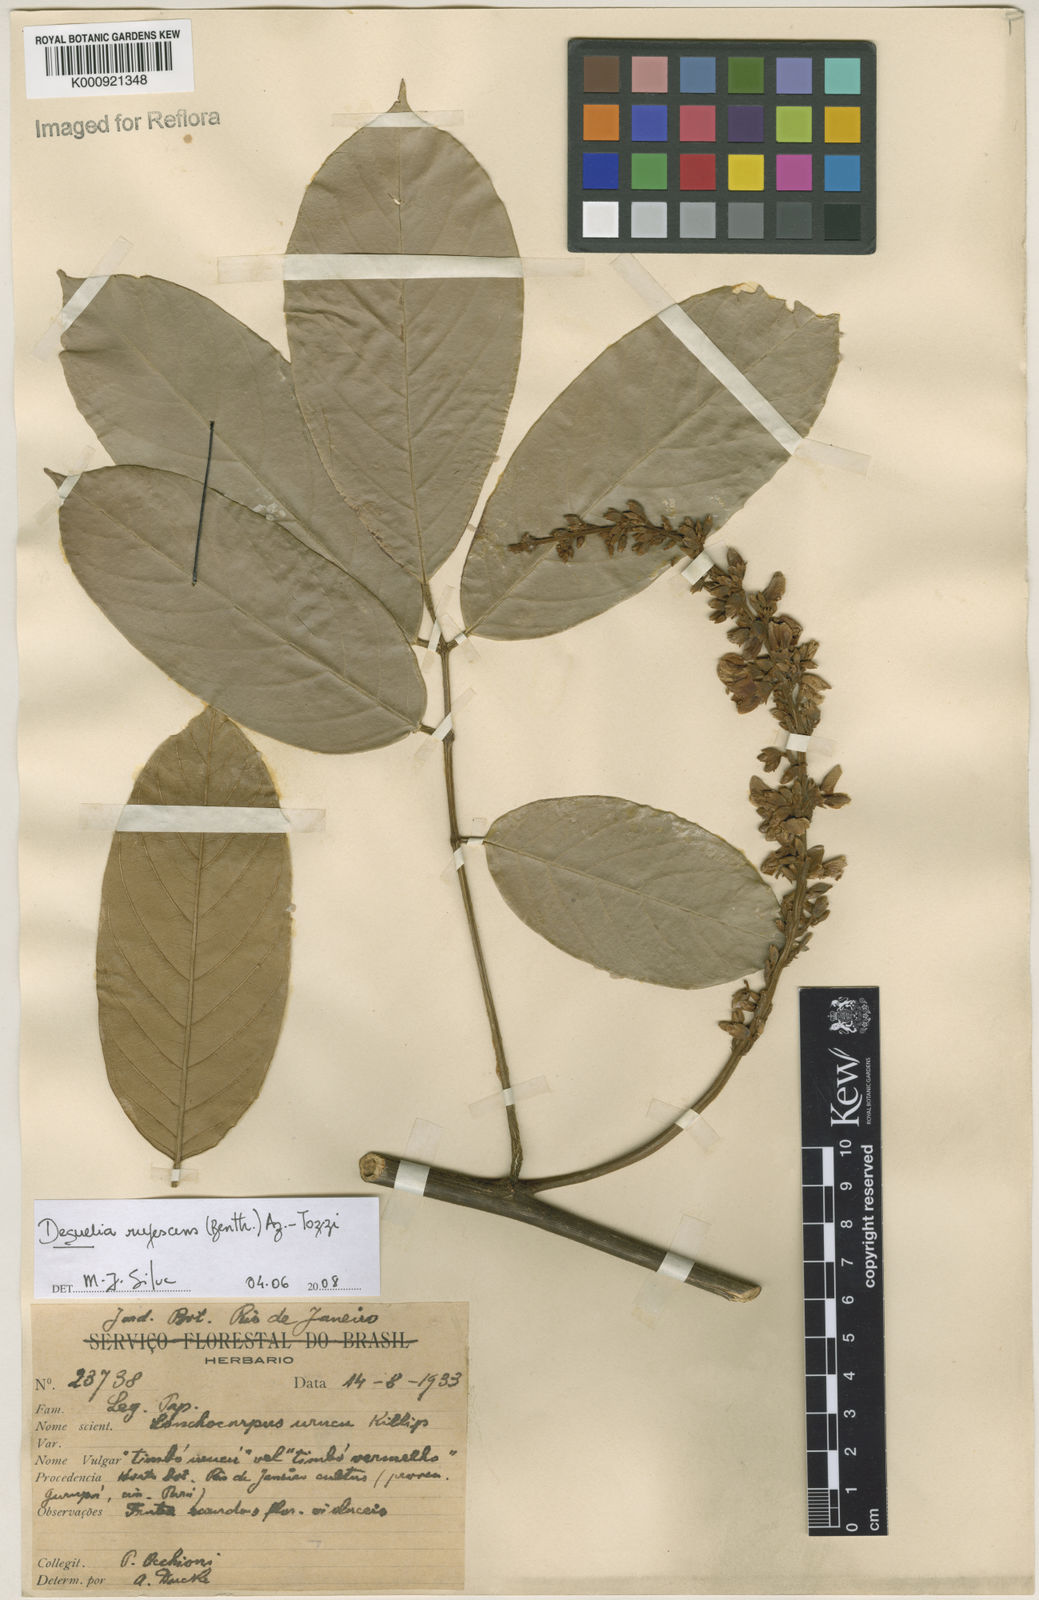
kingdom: Plantae
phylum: Tracheophyta
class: Magnoliopsida
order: Fabales
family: Fabaceae
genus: Deguelia
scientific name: Deguelia
